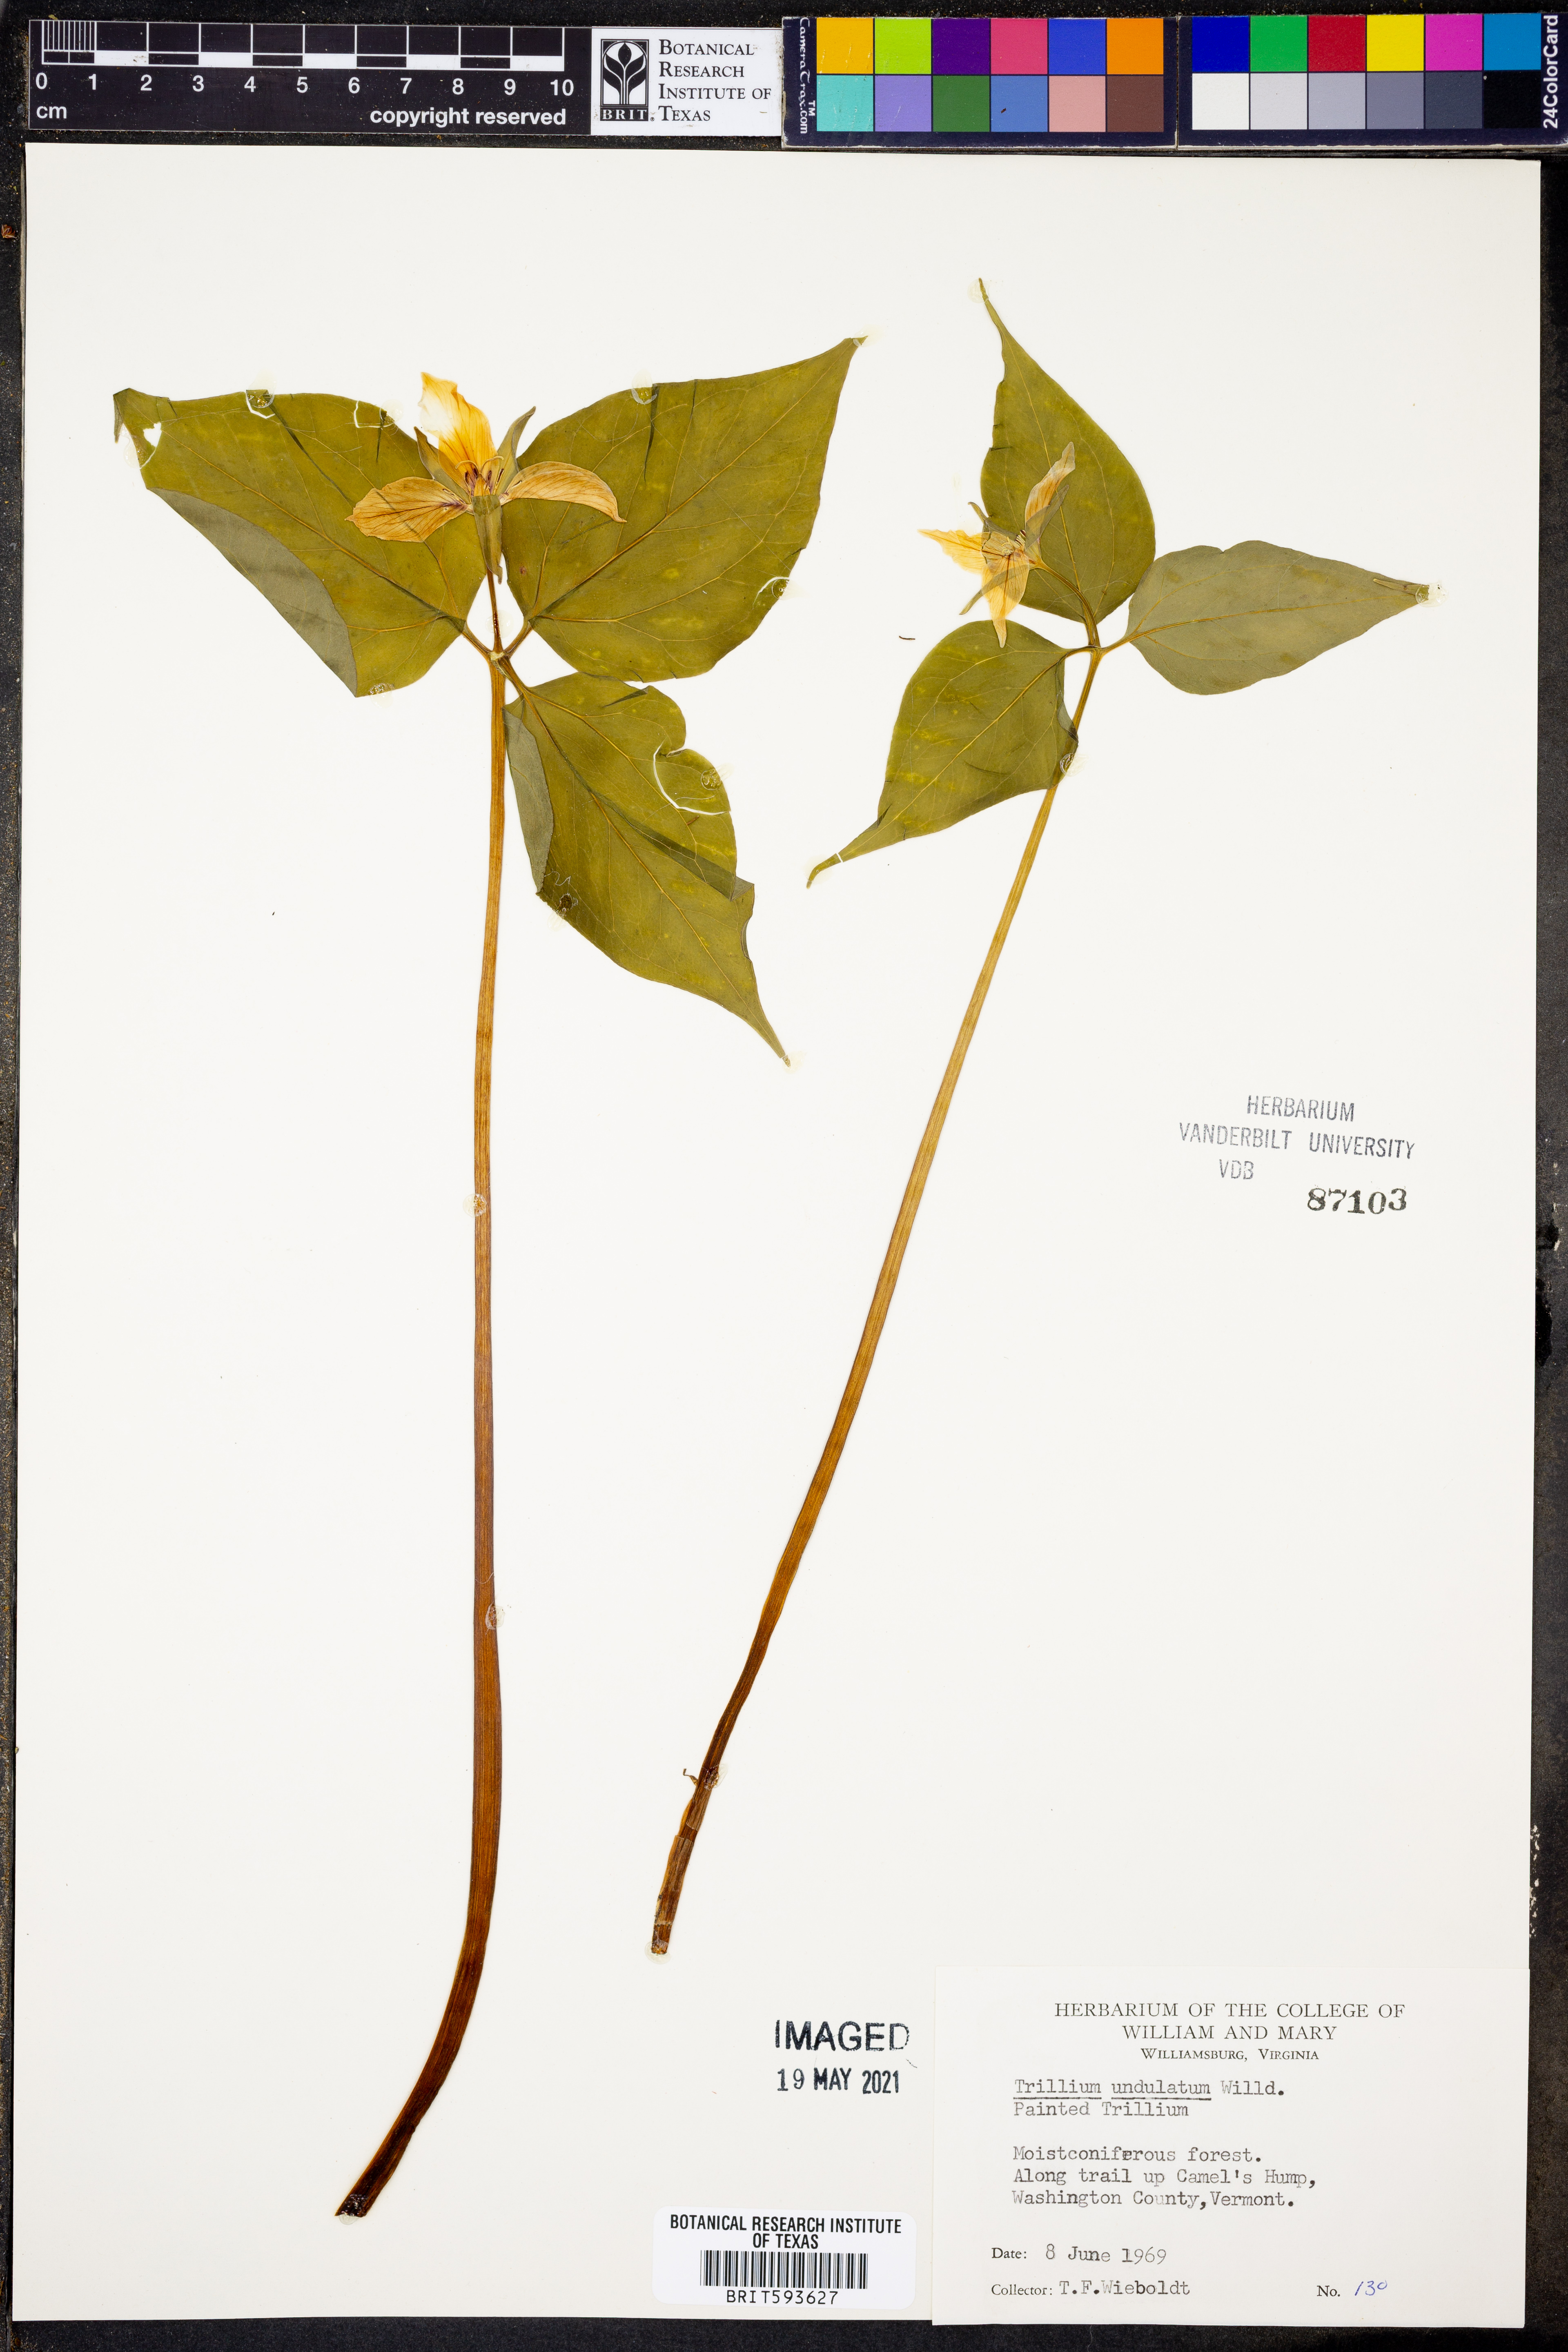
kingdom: Plantae
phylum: Tracheophyta
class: Liliopsida
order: Liliales
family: Melanthiaceae
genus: Trillium
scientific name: Trillium undulatum
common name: Paint trillium
